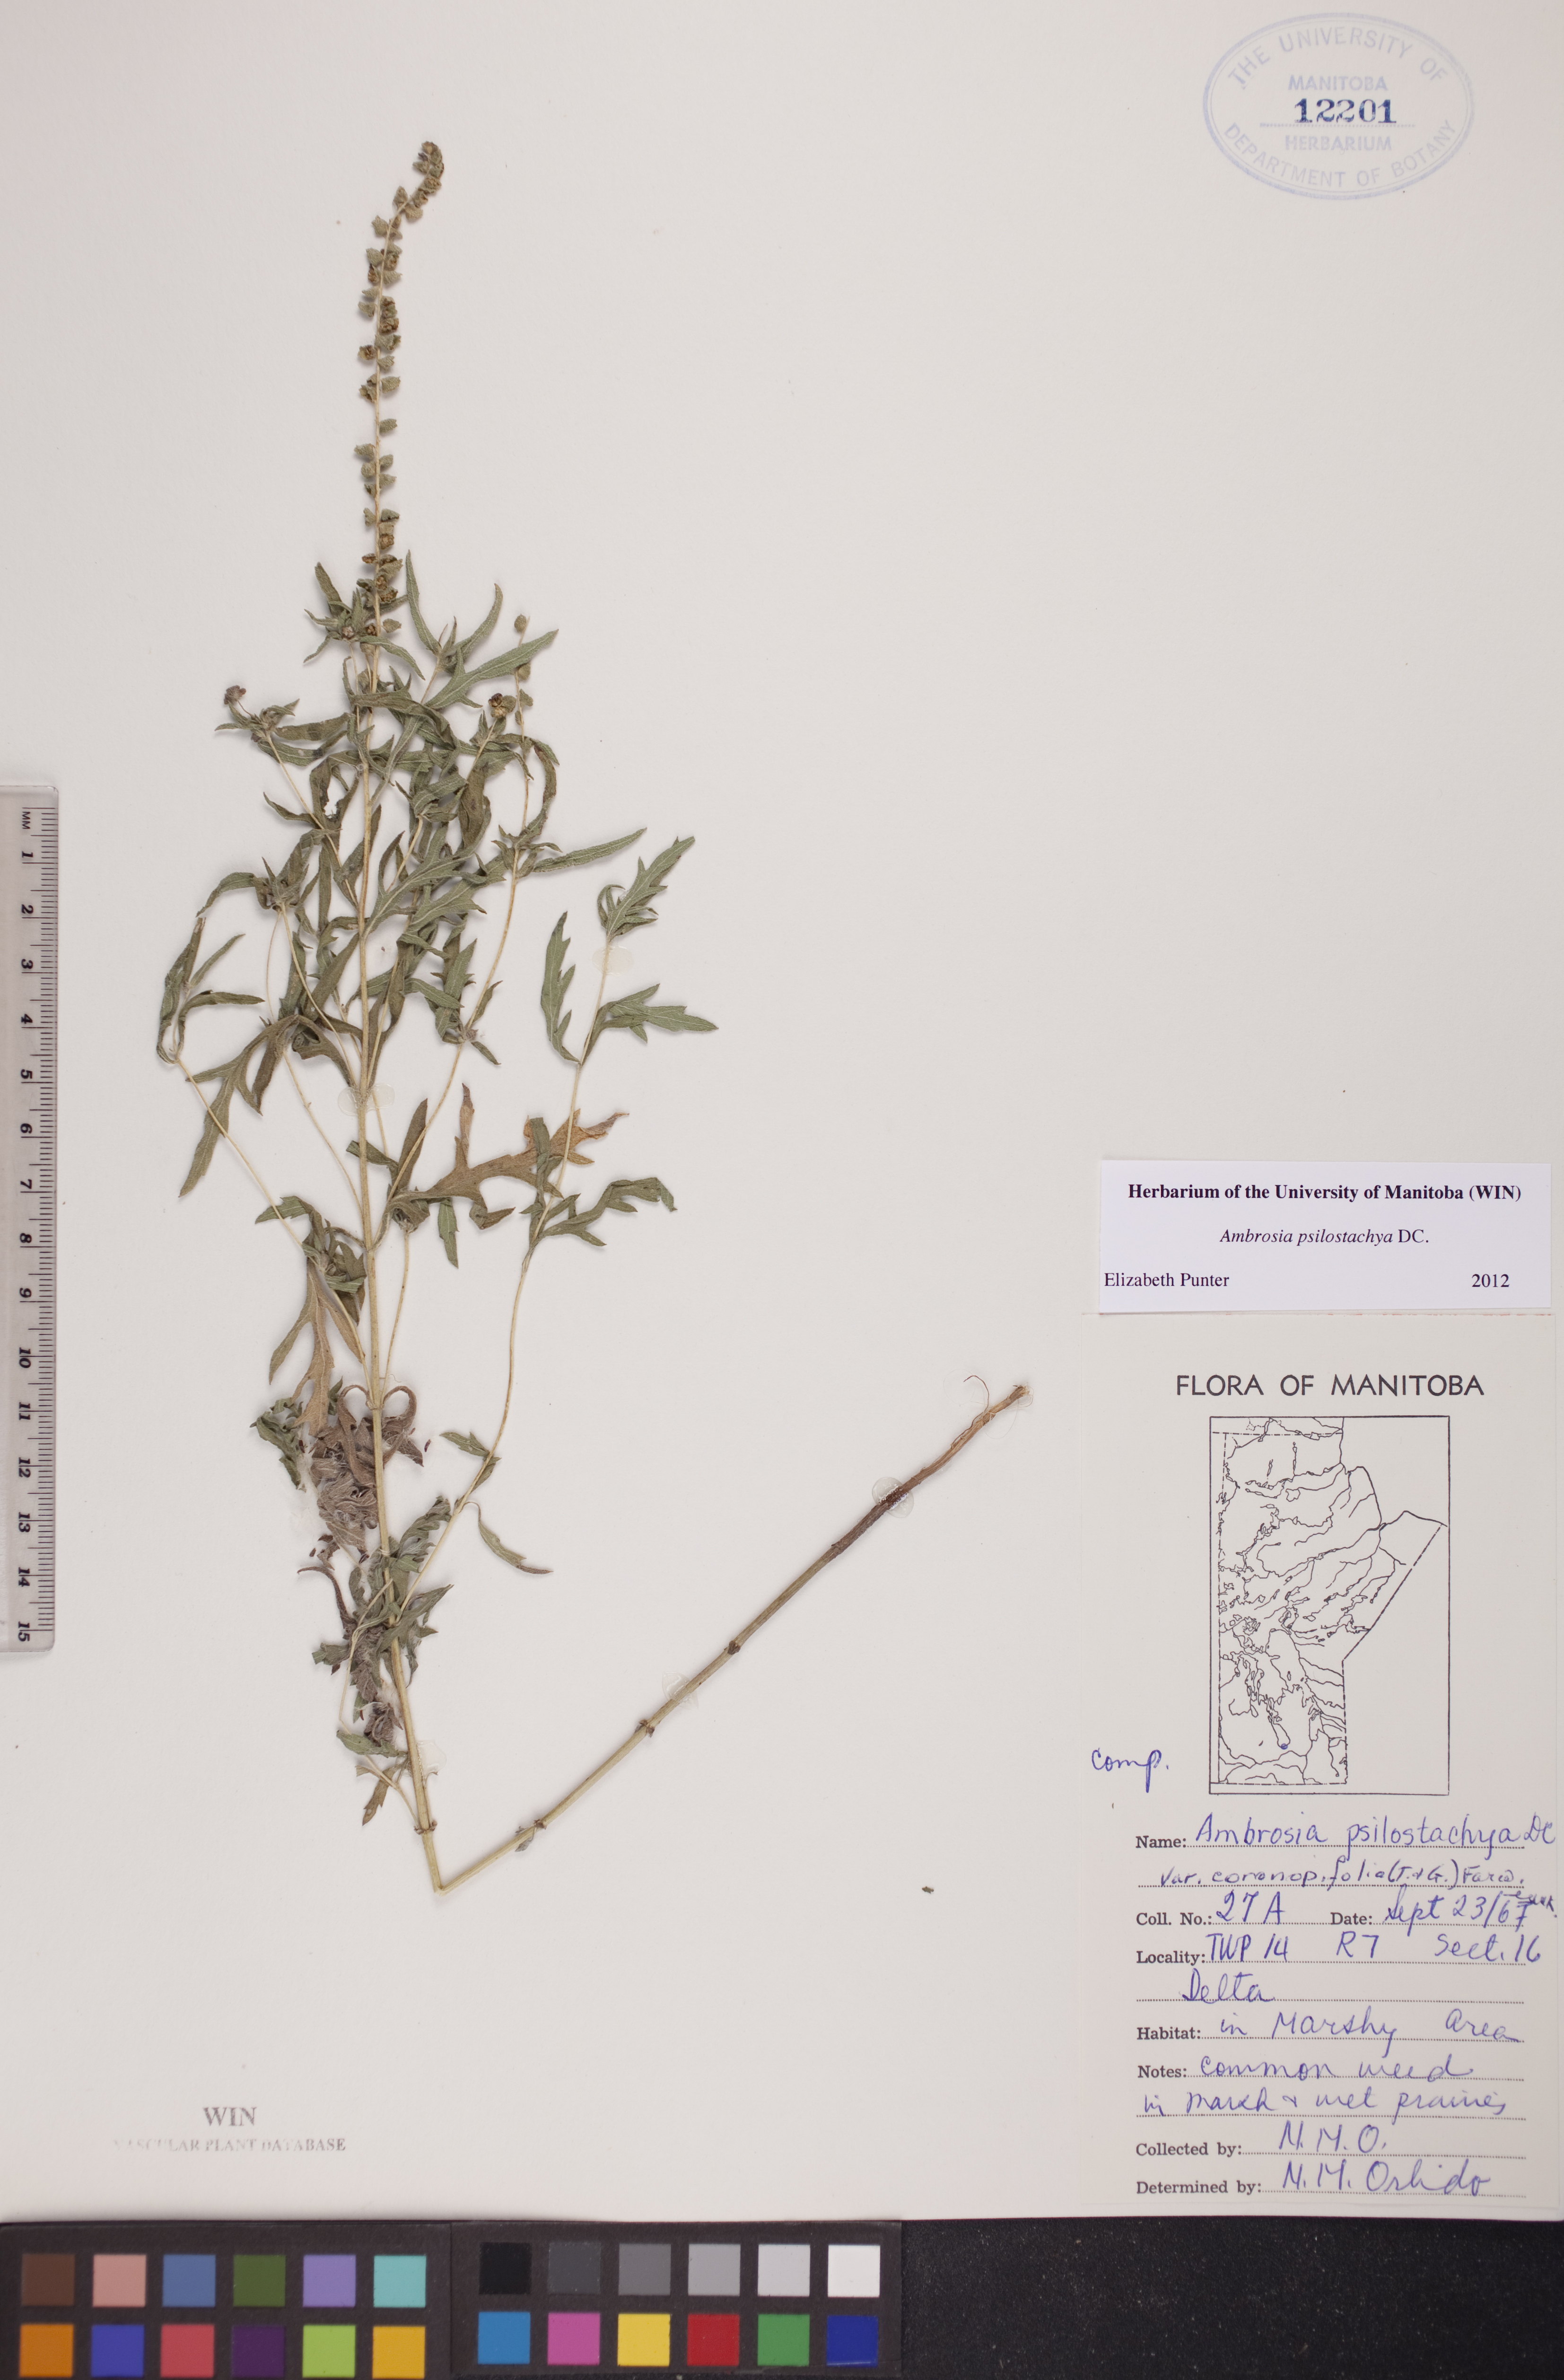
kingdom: Plantae
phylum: Tracheophyta
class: Magnoliopsida
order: Asterales
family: Asteraceae
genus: Ambrosia
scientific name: Ambrosia psilostachya
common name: Perennial ragweed
